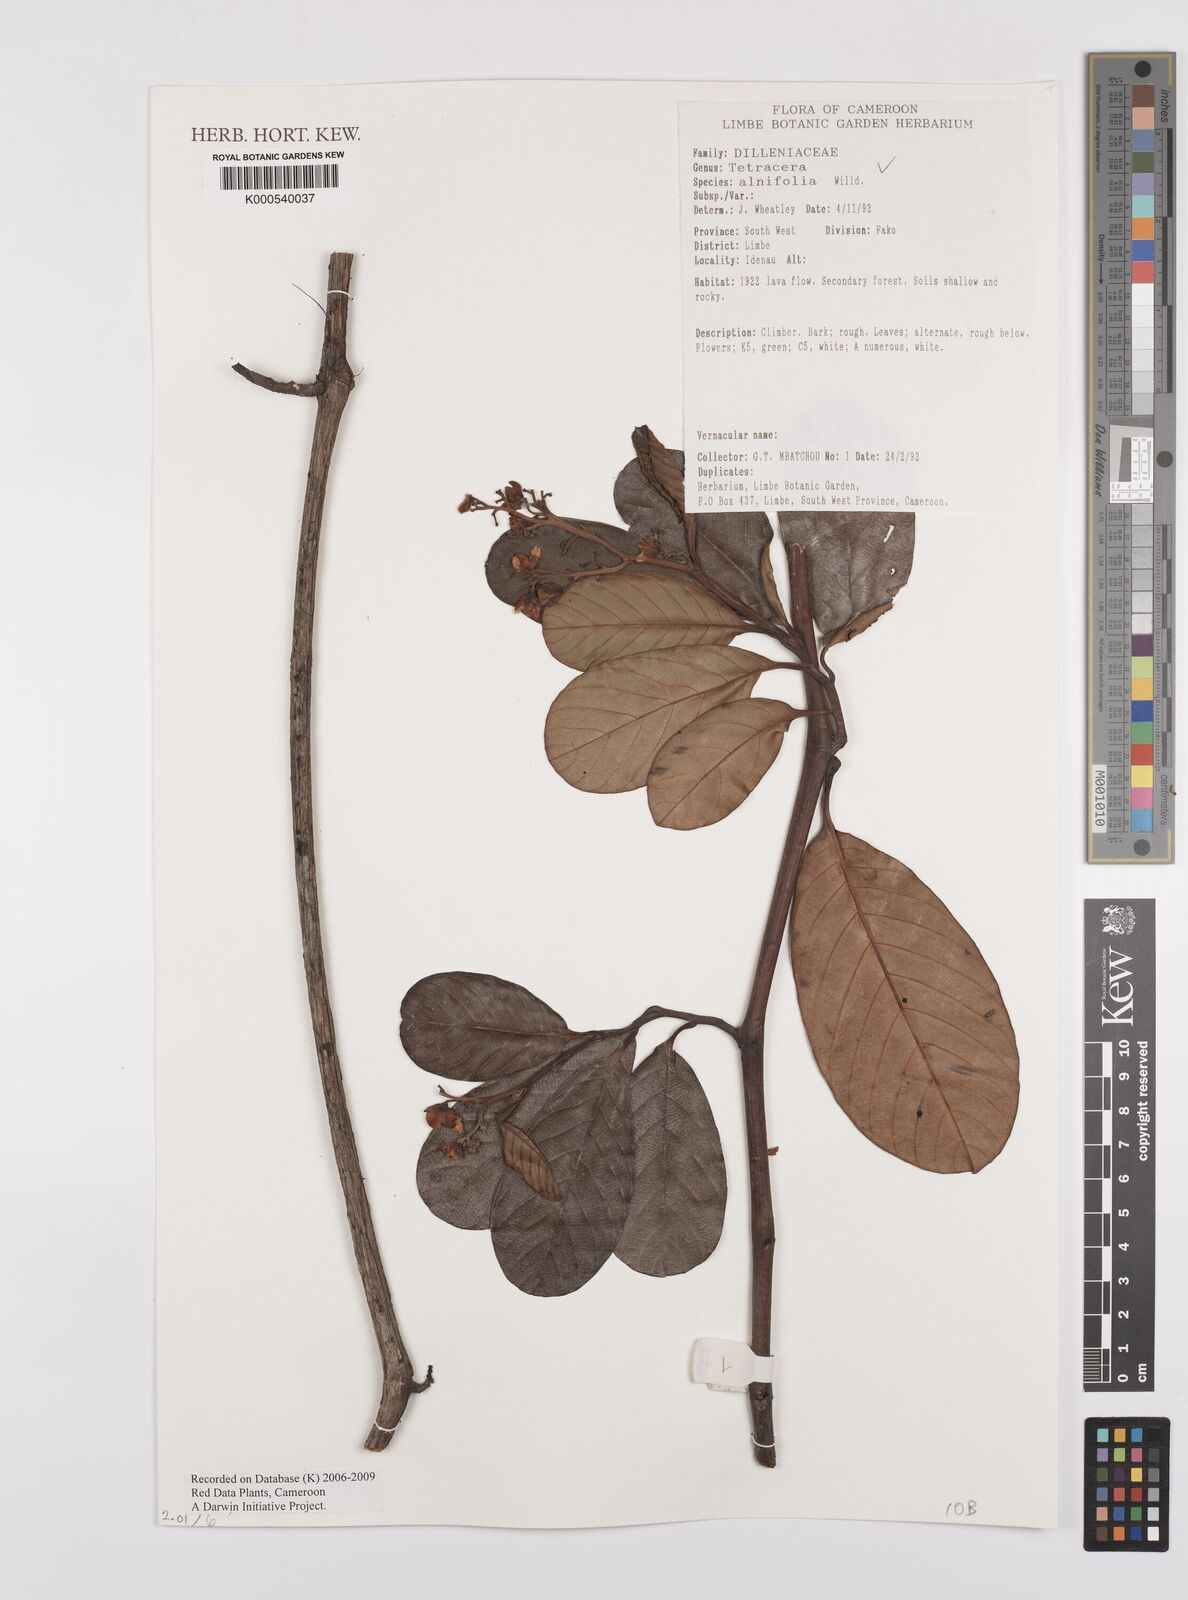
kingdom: Plantae
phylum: Tracheophyta
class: Magnoliopsida
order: Dilleniales
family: Dilleniaceae
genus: Tetracera
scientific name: Tetracera alnifolia
